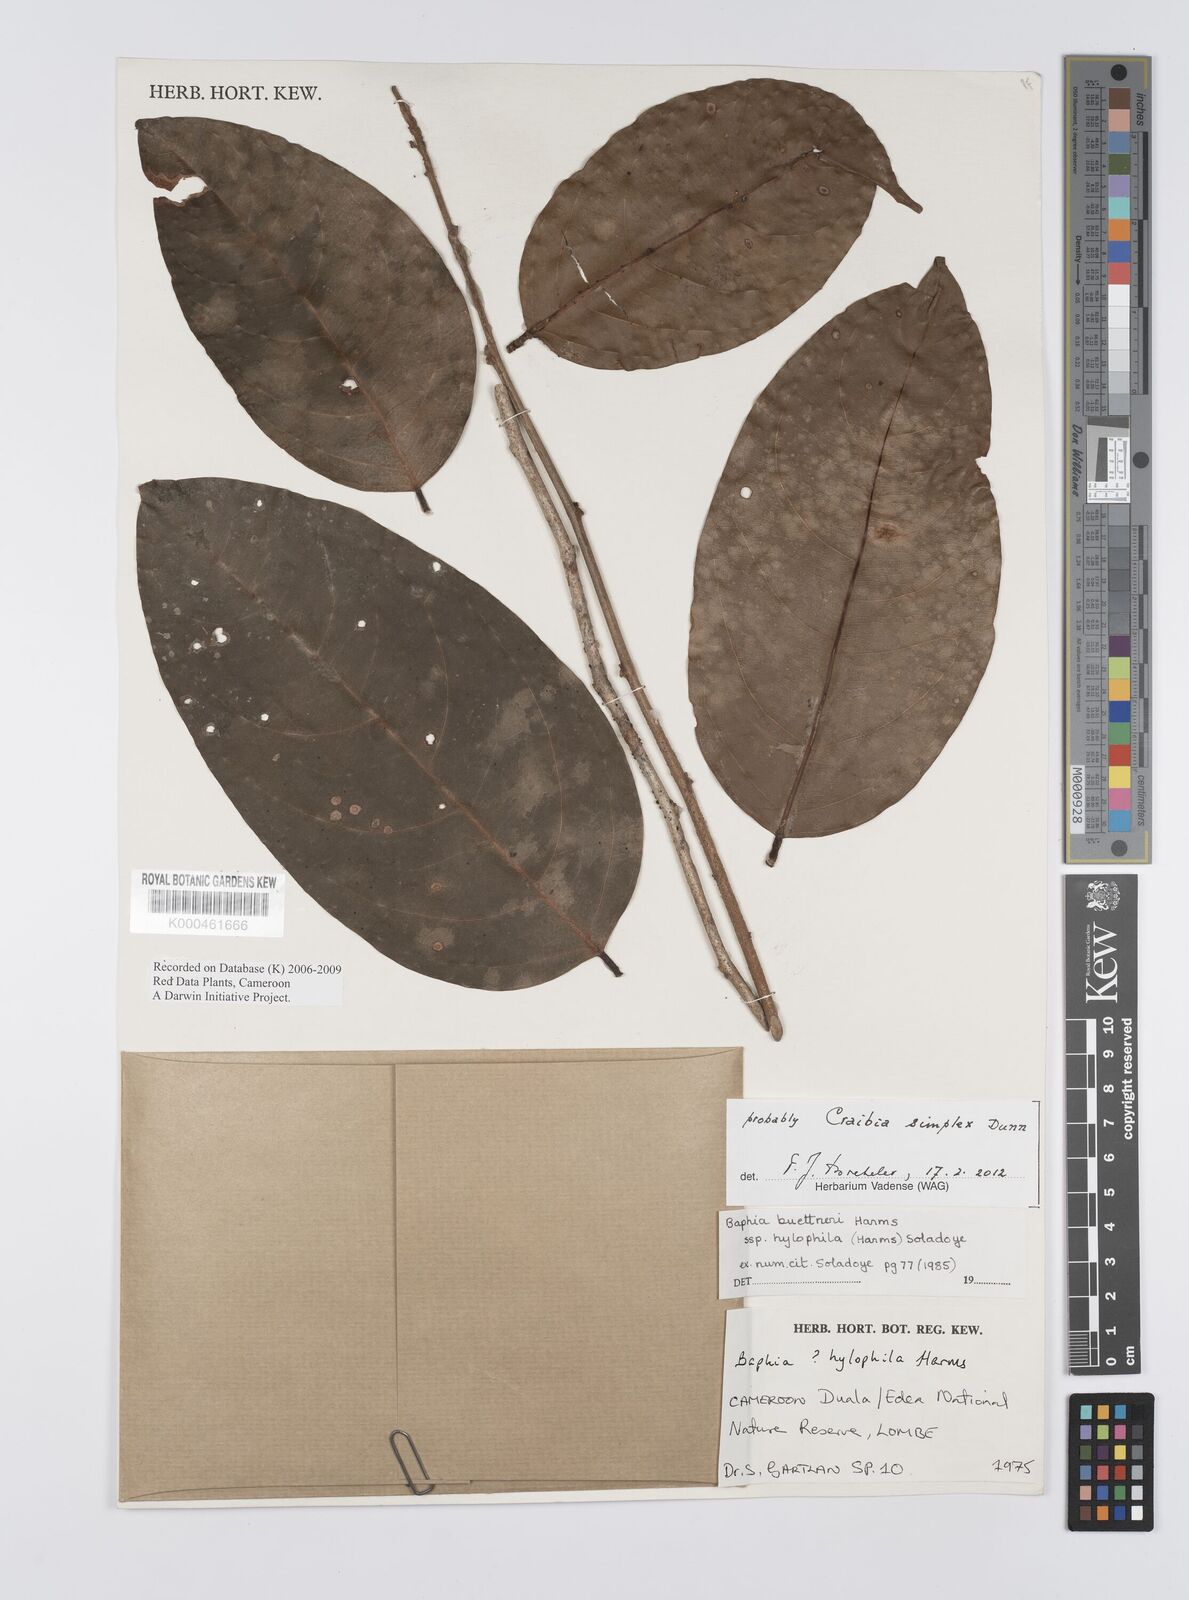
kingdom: Plantae
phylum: Tracheophyta
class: Magnoliopsida
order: Fabales
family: Fabaceae
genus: Baphia
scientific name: Baphia buettneri
